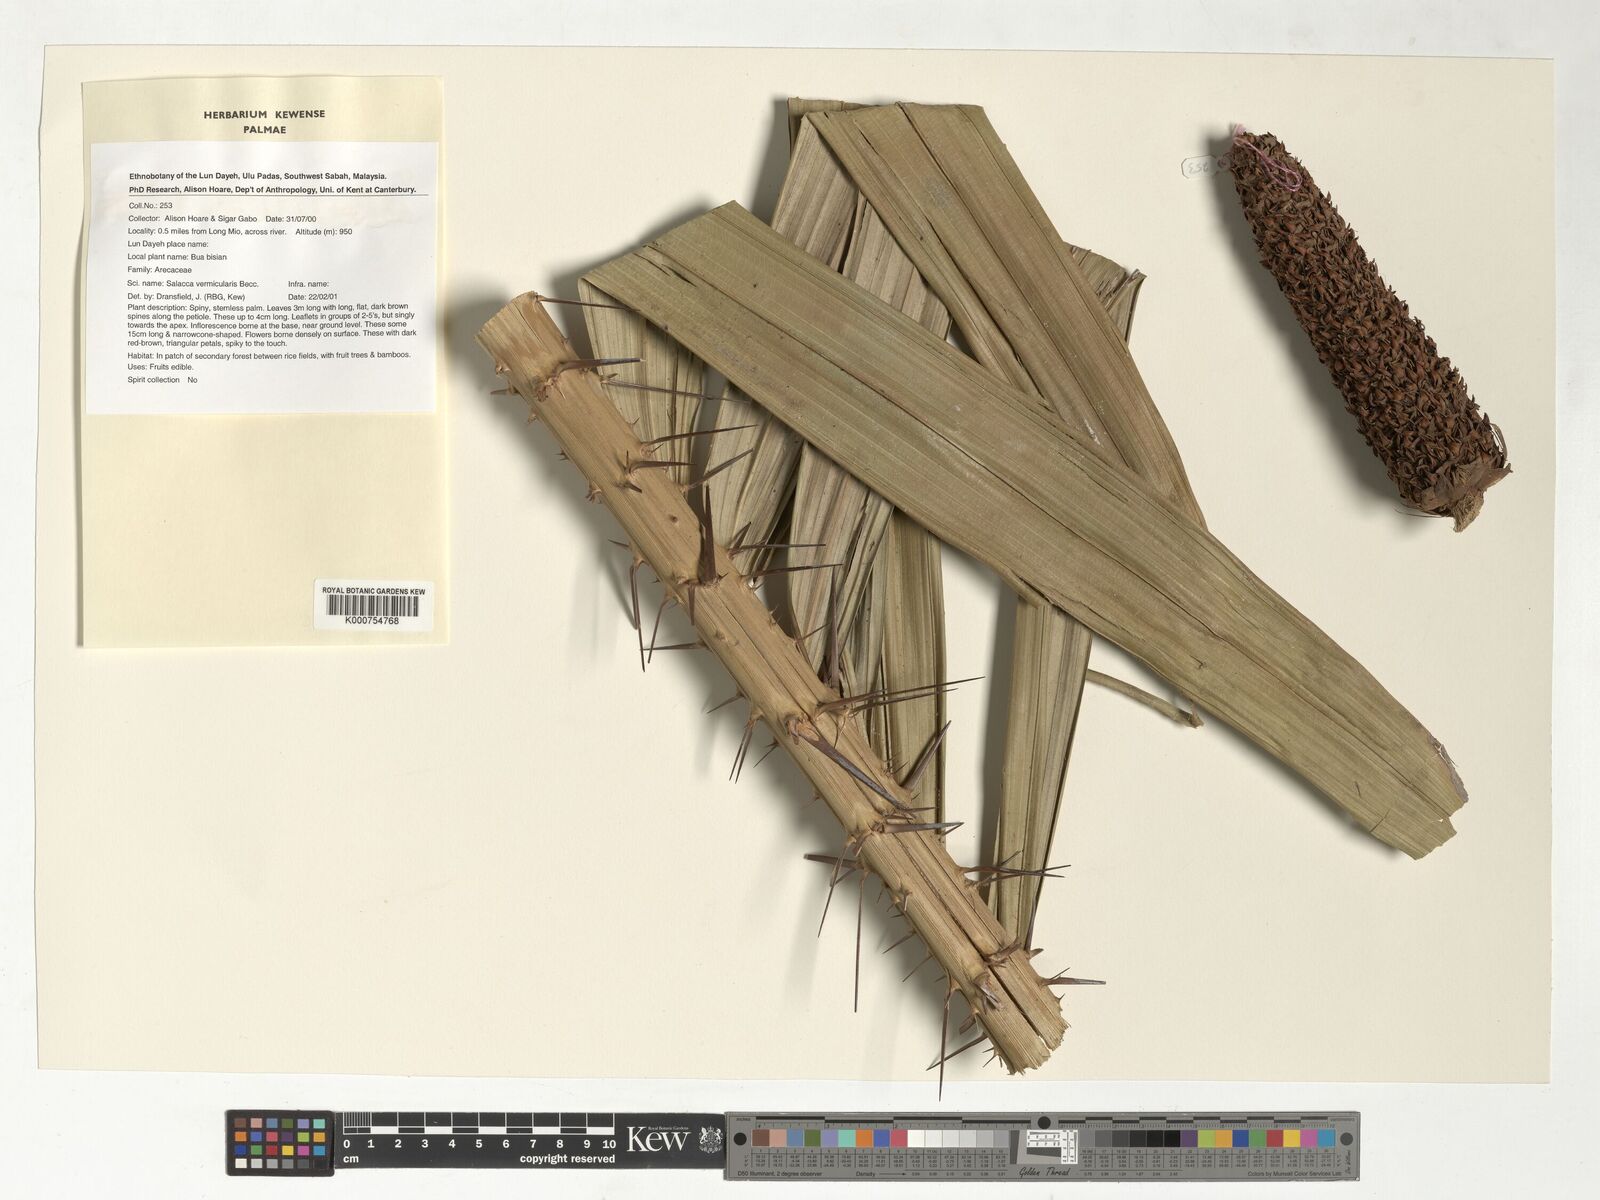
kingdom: Plantae
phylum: Tracheophyta
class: Liliopsida
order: Arecales
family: Arecaceae
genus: Salacca
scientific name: Salacca vermicularis
